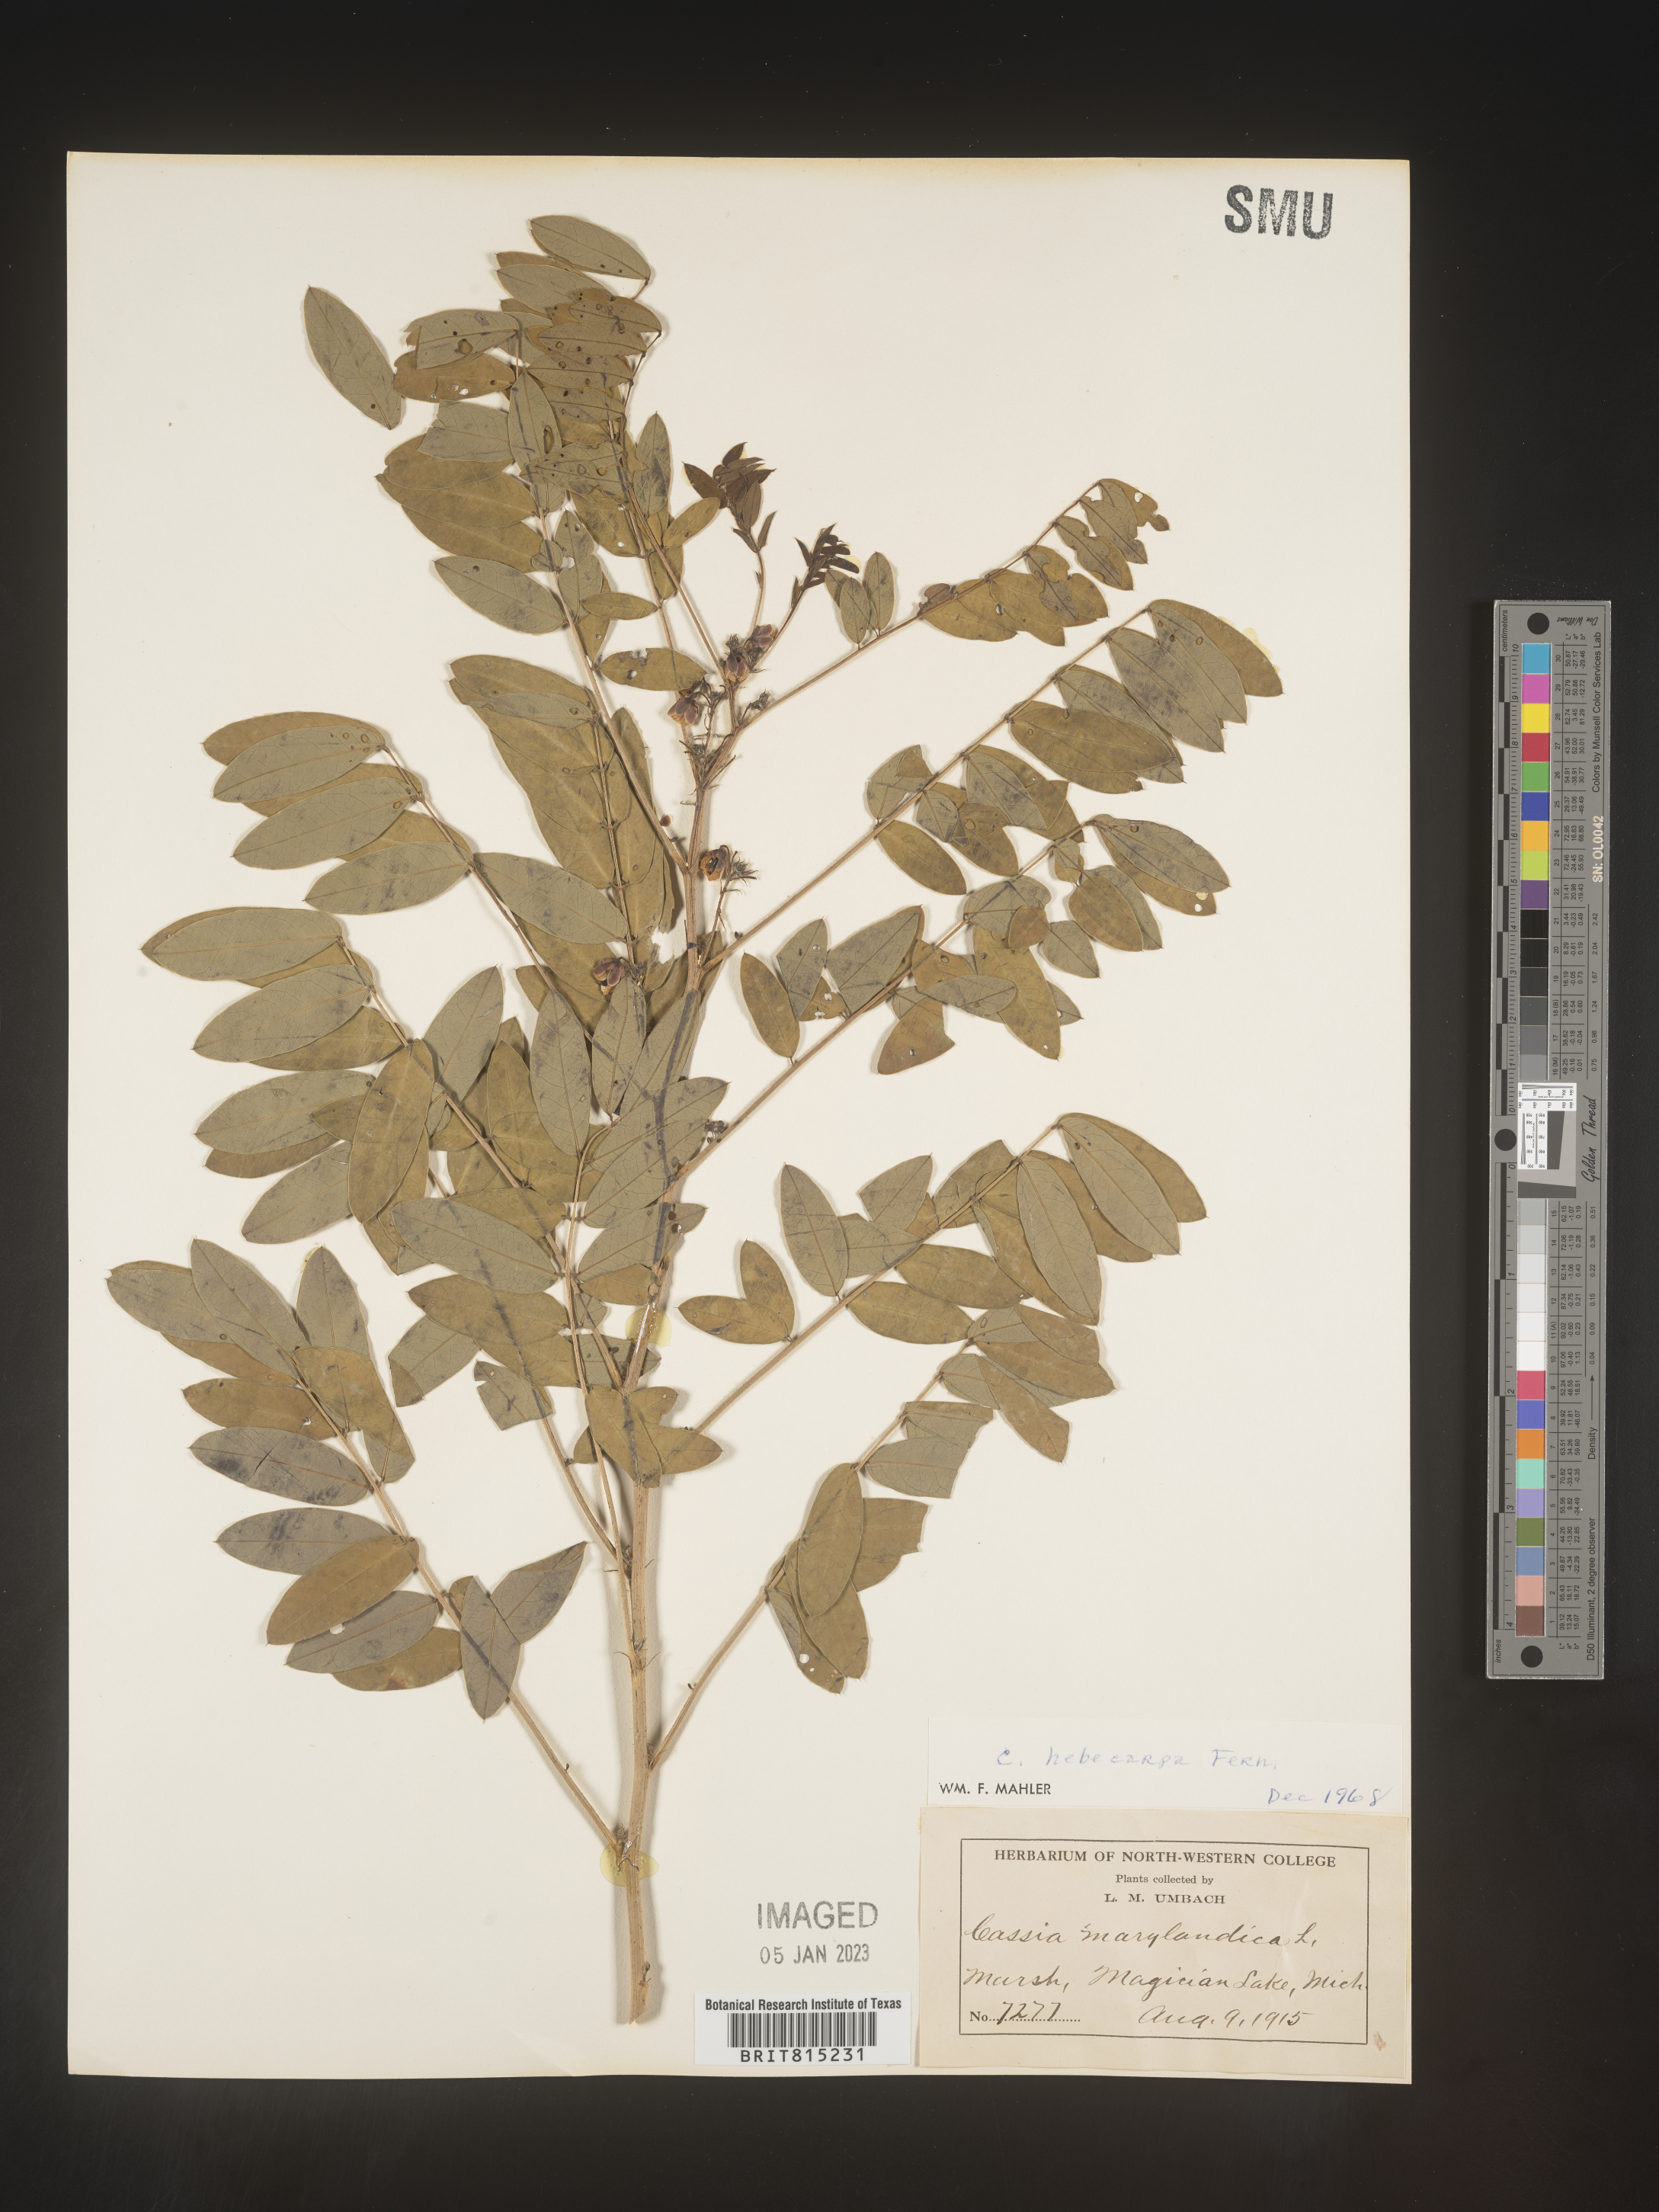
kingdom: Plantae
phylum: Tracheophyta
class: Magnoliopsida
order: Fabales
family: Fabaceae
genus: Senna
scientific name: Senna hebecarpa
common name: Wild senna
